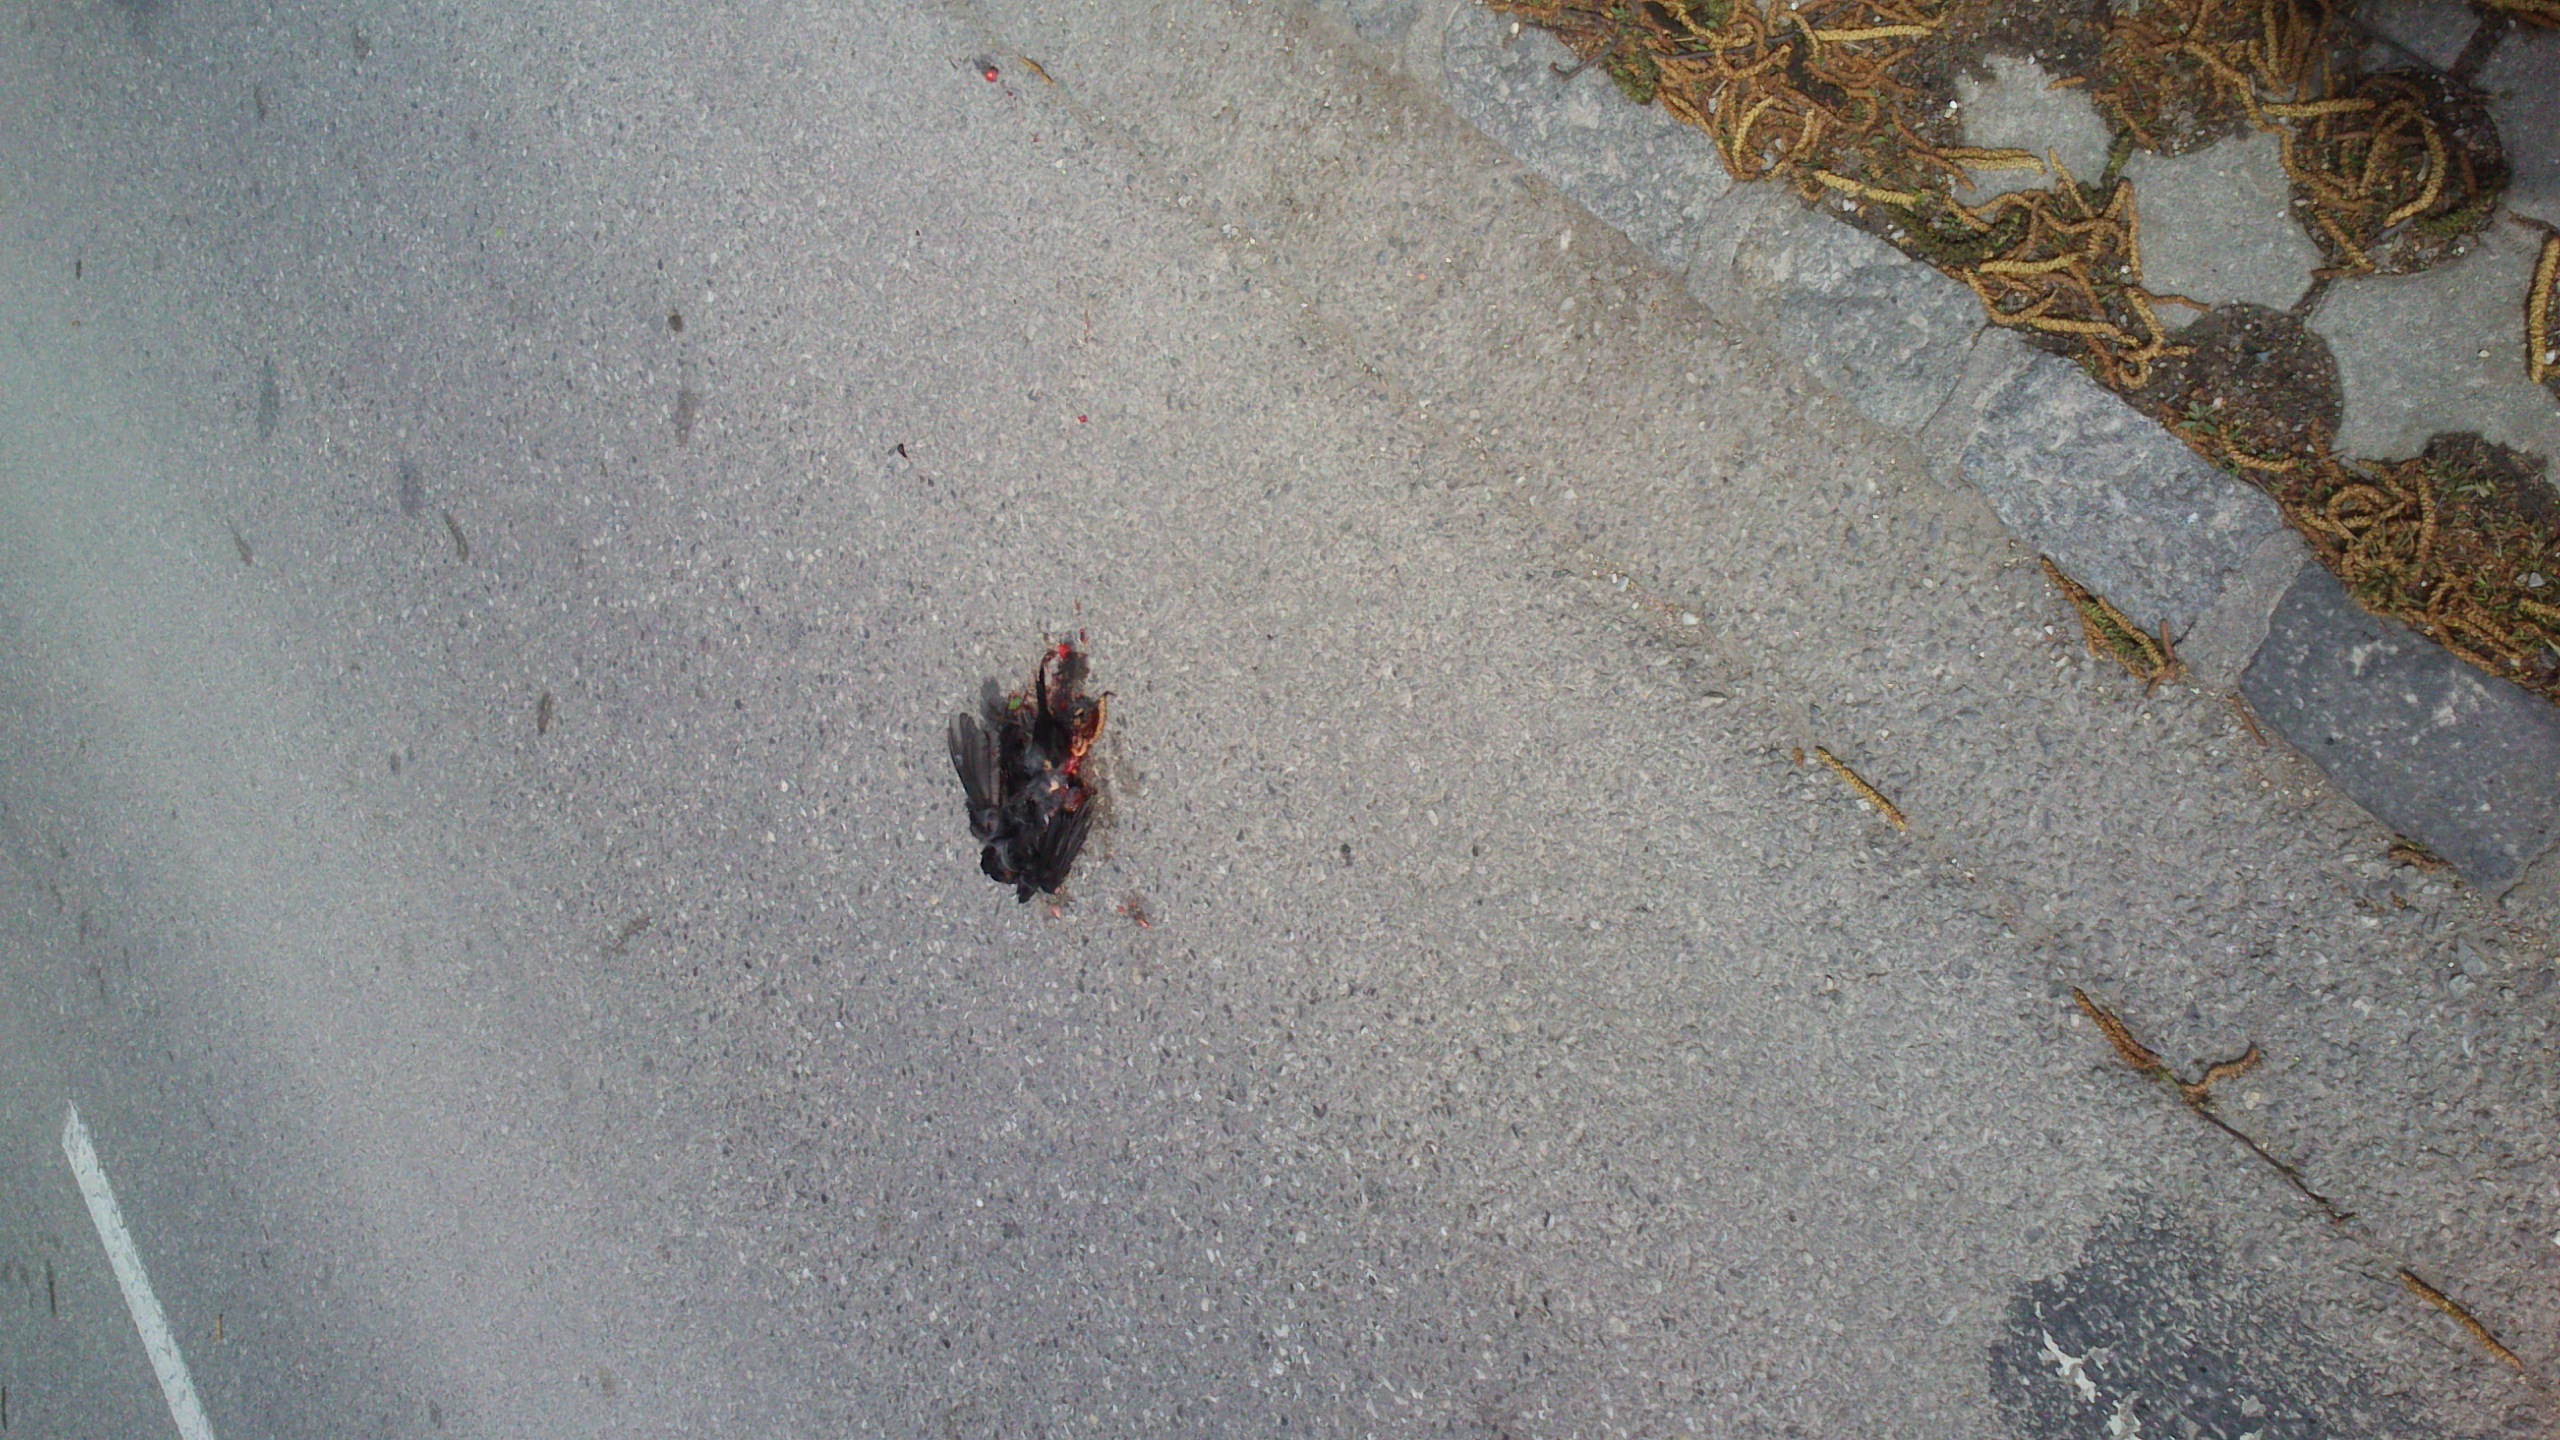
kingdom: Animalia
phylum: Chordata
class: Aves
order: Passeriformes
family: Turdidae
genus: Turdus
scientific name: Turdus merula
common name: Common blackbird
